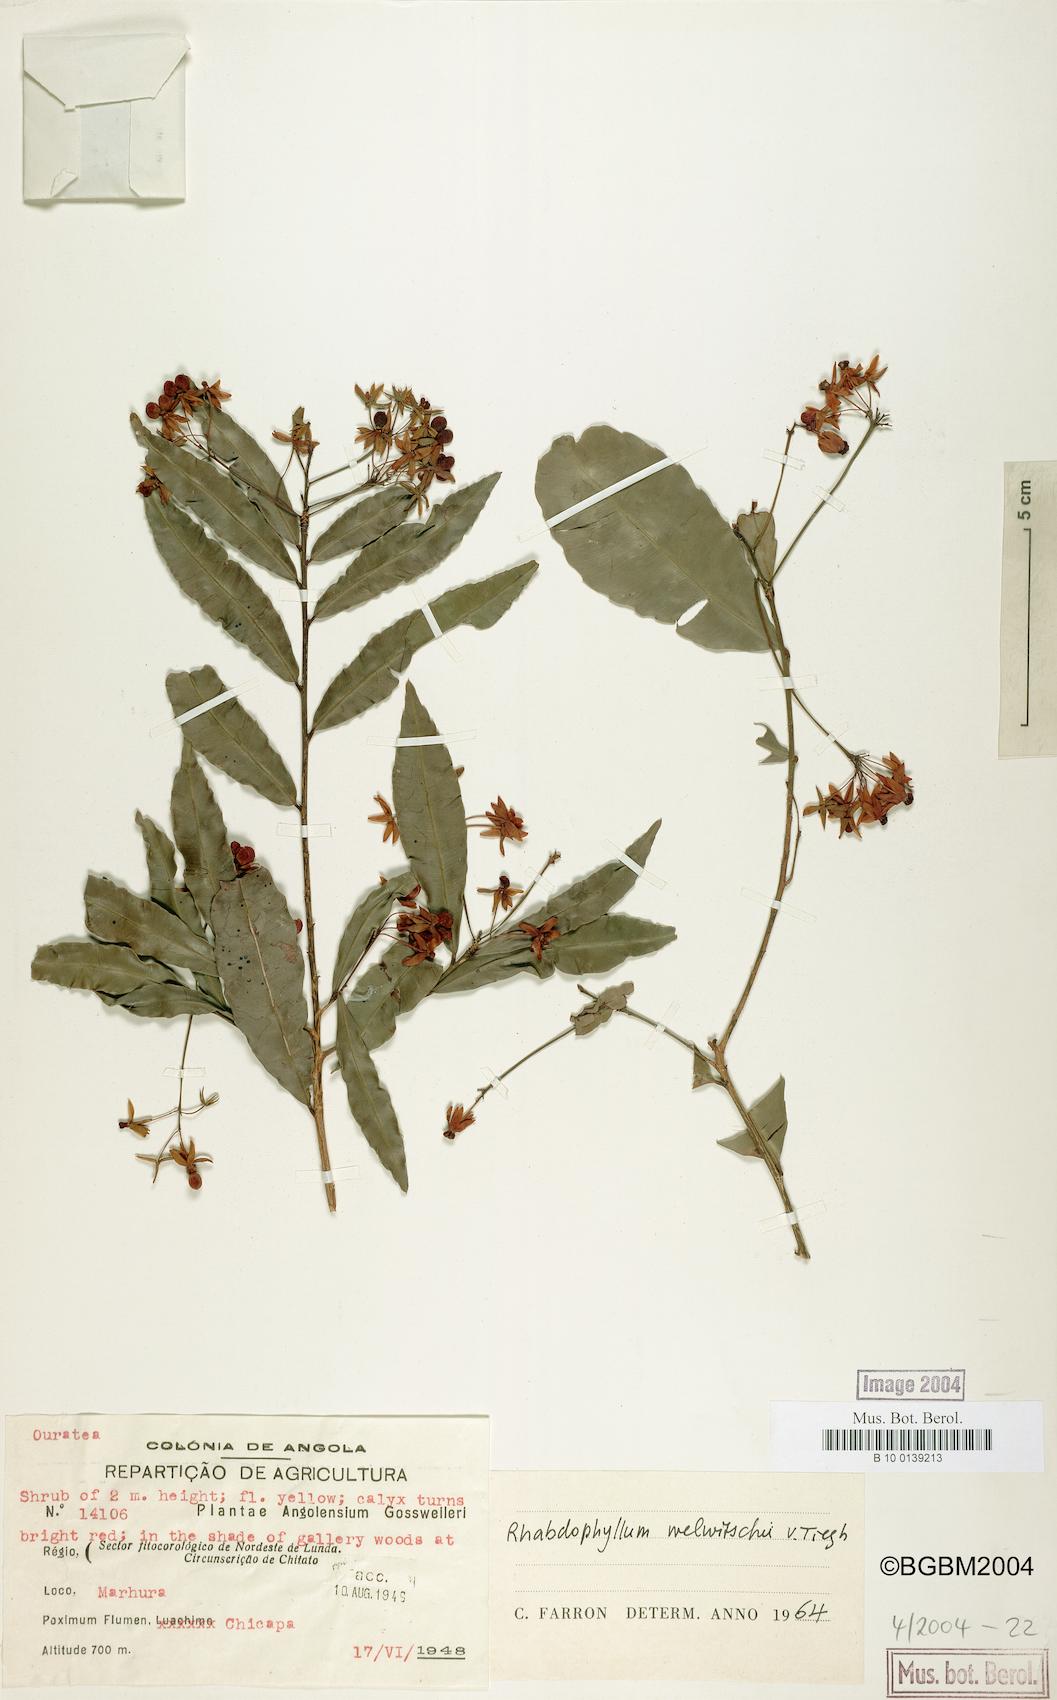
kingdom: Plantae
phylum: Tracheophyta
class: Magnoliopsida
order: Malpighiales
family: Ochnaceae
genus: Rhabdophyllum
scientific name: Rhabdophyllum welwitschii
